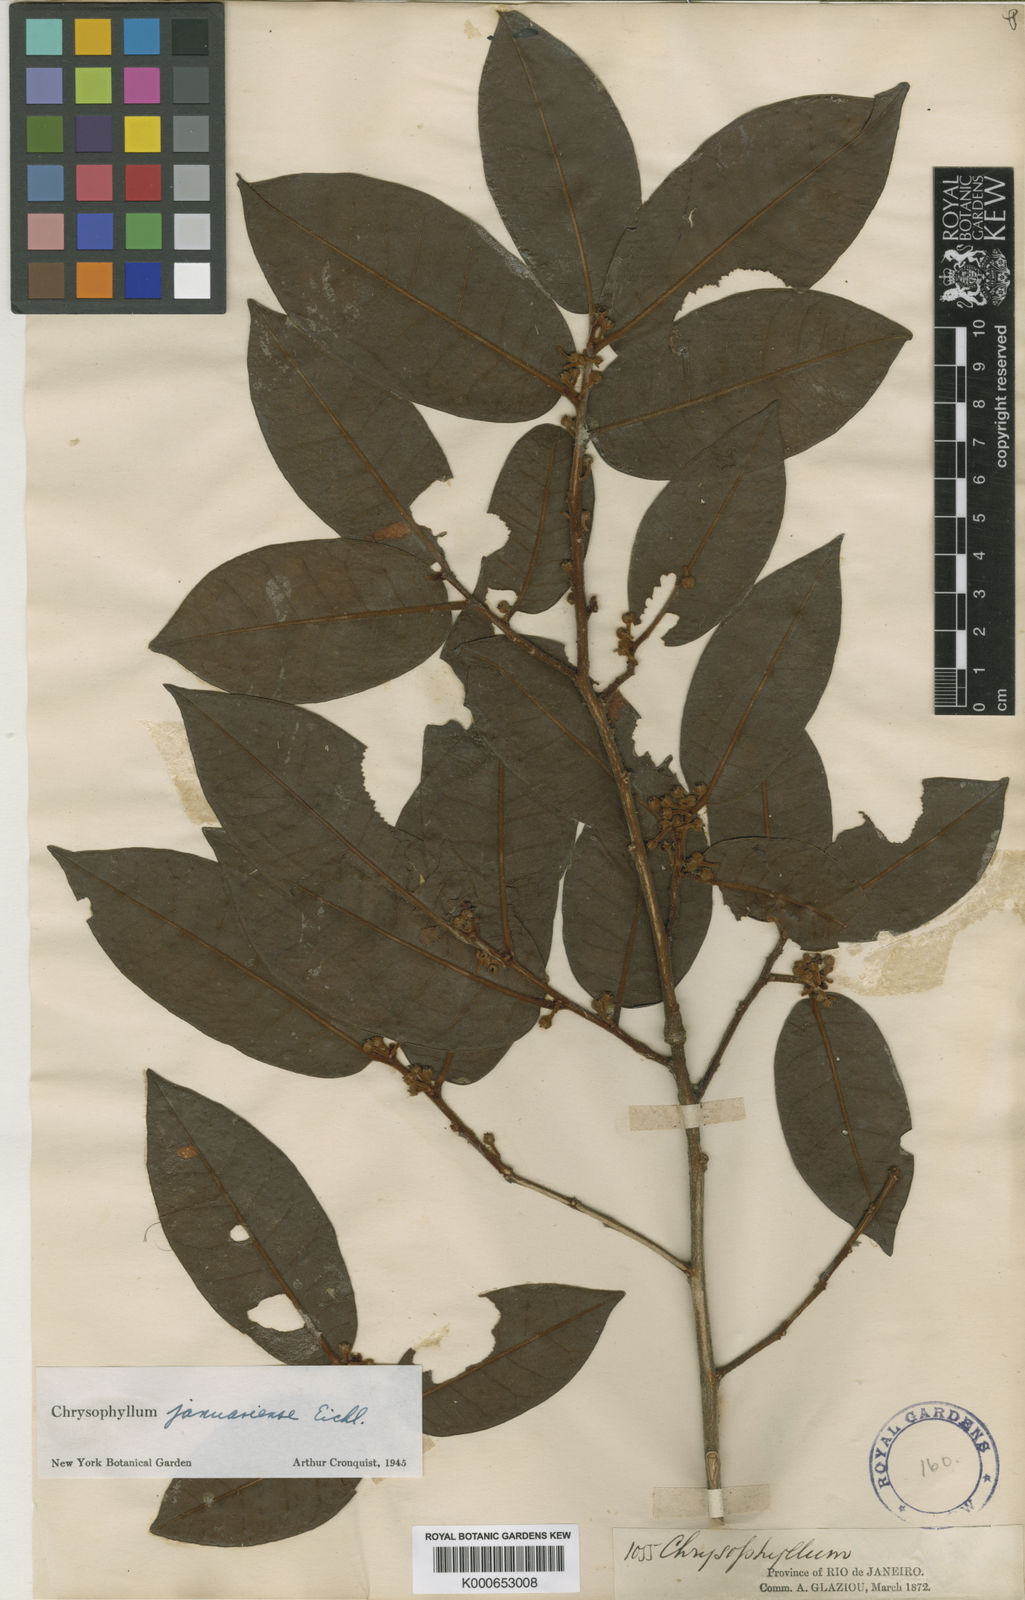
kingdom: Plantae
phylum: Tracheophyta
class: Magnoliopsida
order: Ericales
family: Sapotaceae
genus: Chrysophyllum
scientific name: Chrysophyllum januariense
